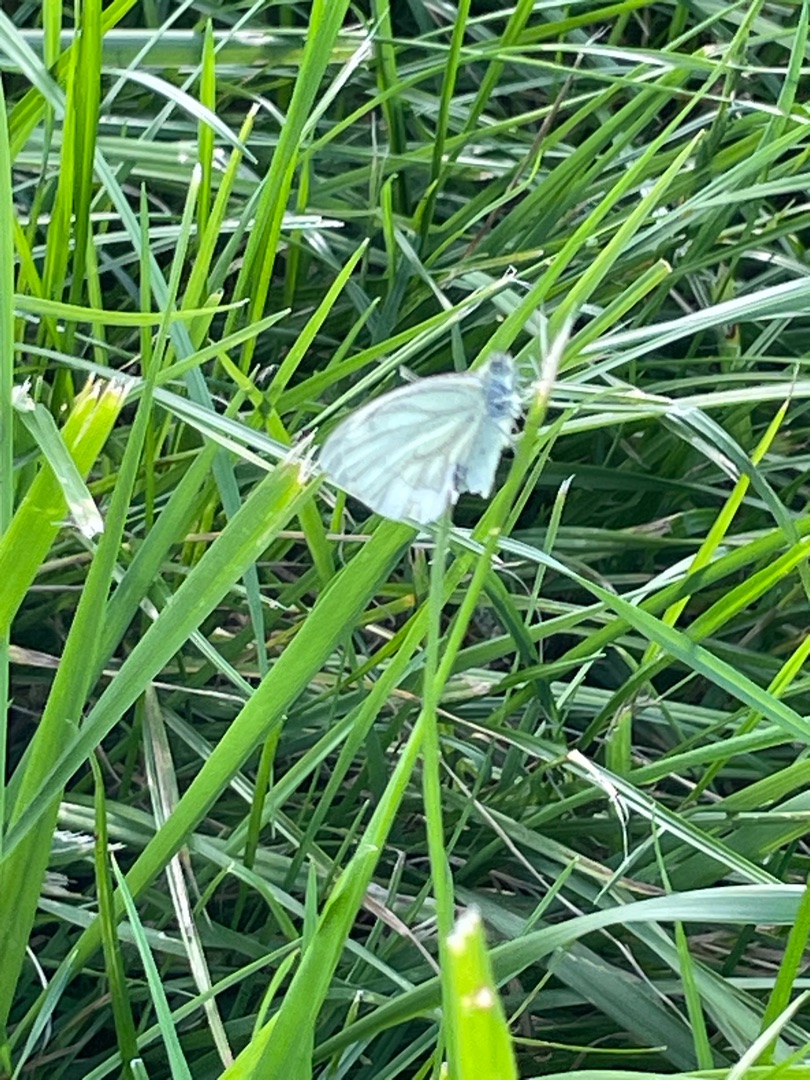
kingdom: Animalia
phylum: Arthropoda
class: Insecta
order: Lepidoptera
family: Pieridae
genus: Pieris
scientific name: Pieris napi
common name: Grønåret kålsommerfugl
